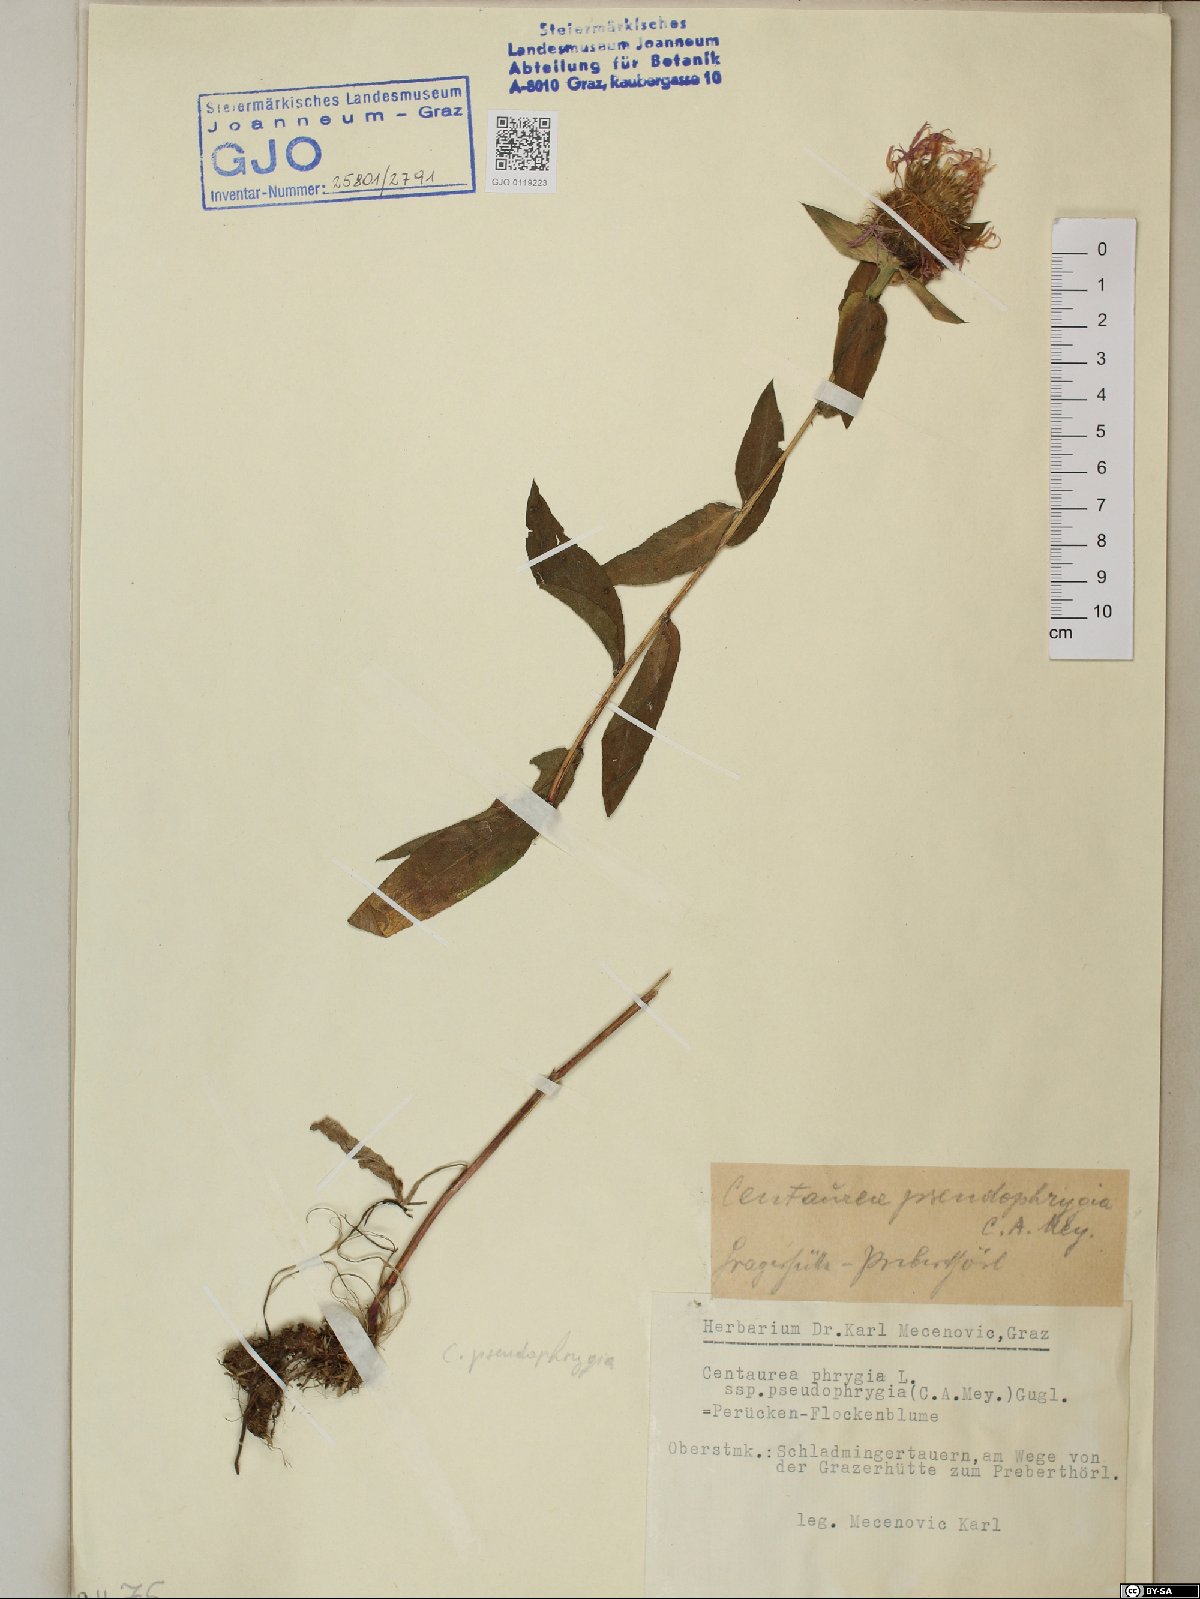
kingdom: Plantae
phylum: Tracheophyta
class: Magnoliopsida
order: Asterales
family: Asteraceae
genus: Centaurea
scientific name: Centaurea pseudophrygia
